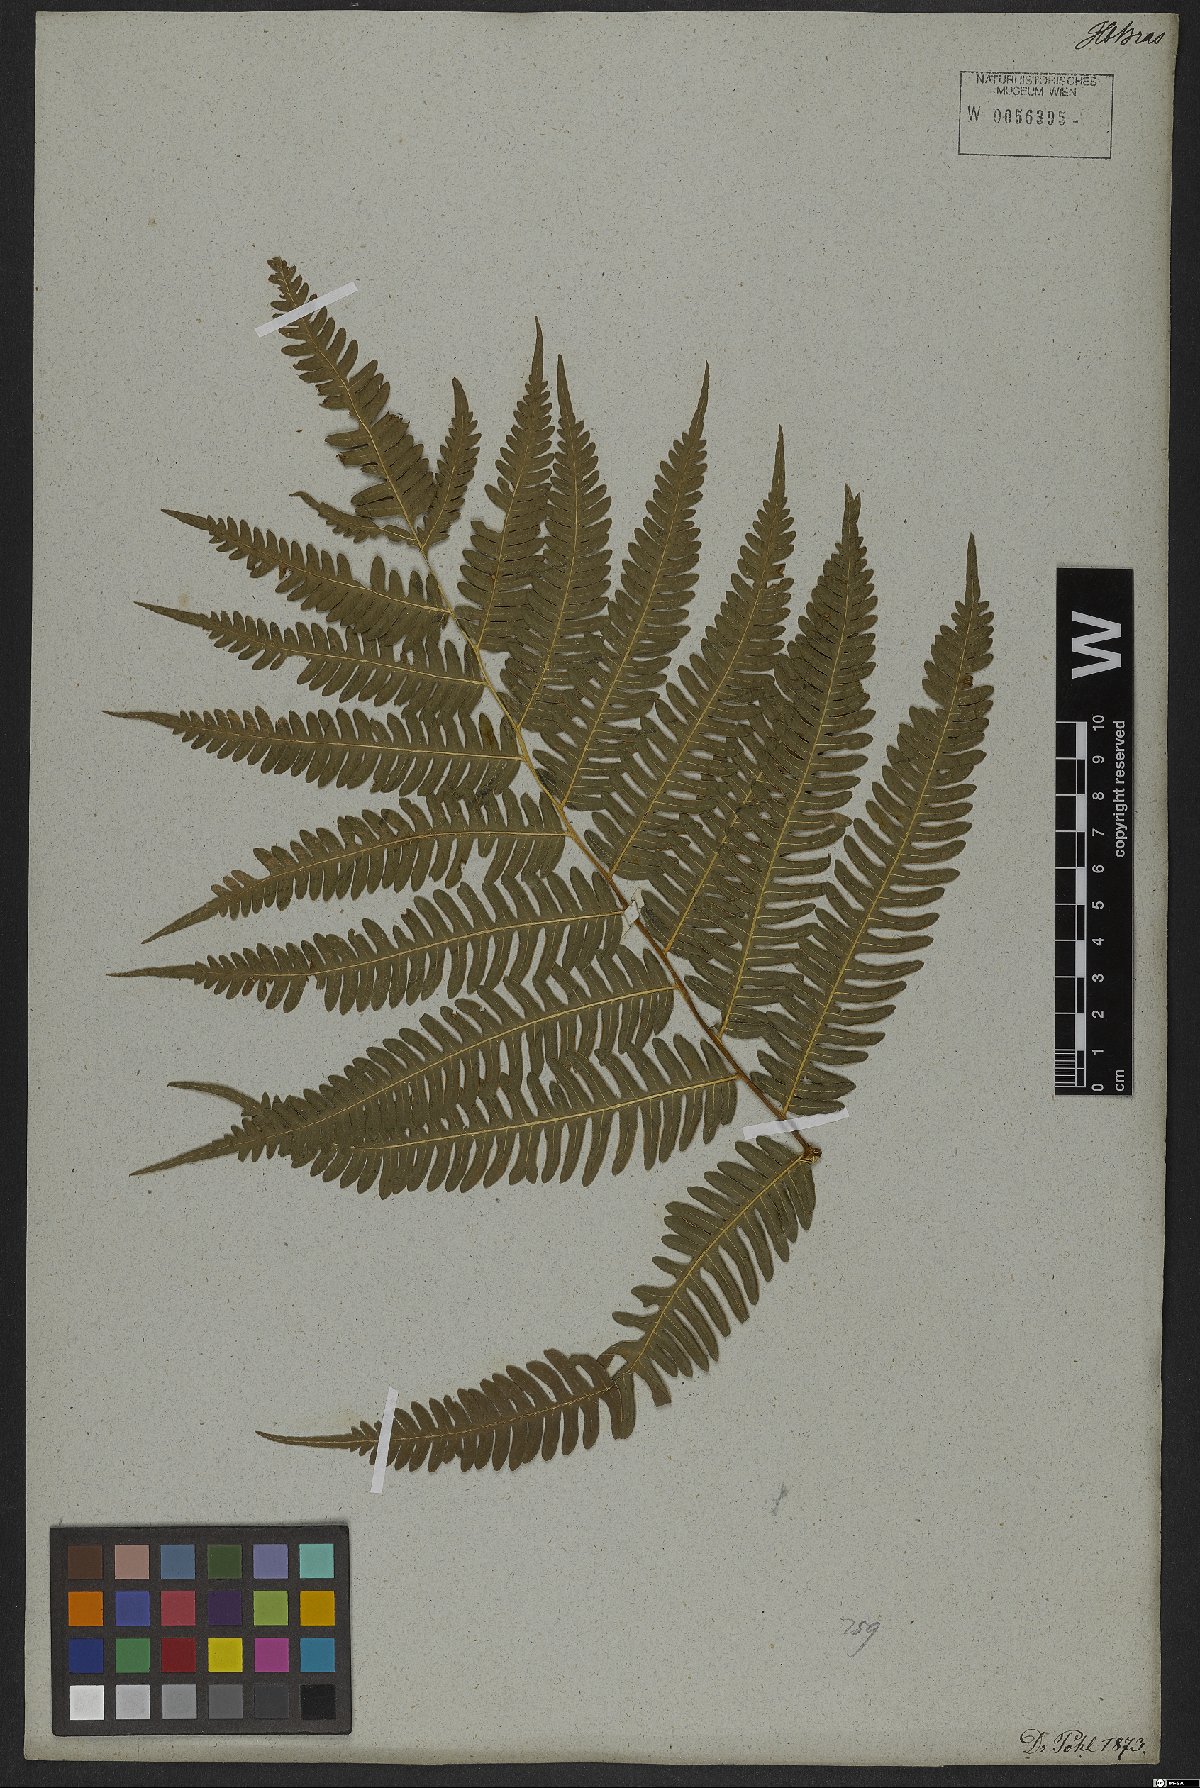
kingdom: Plantae
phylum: Tracheophyta
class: Polypodiopsida
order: Polypodiales
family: Pteridaceae
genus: Pteris
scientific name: Pteris biaurita
